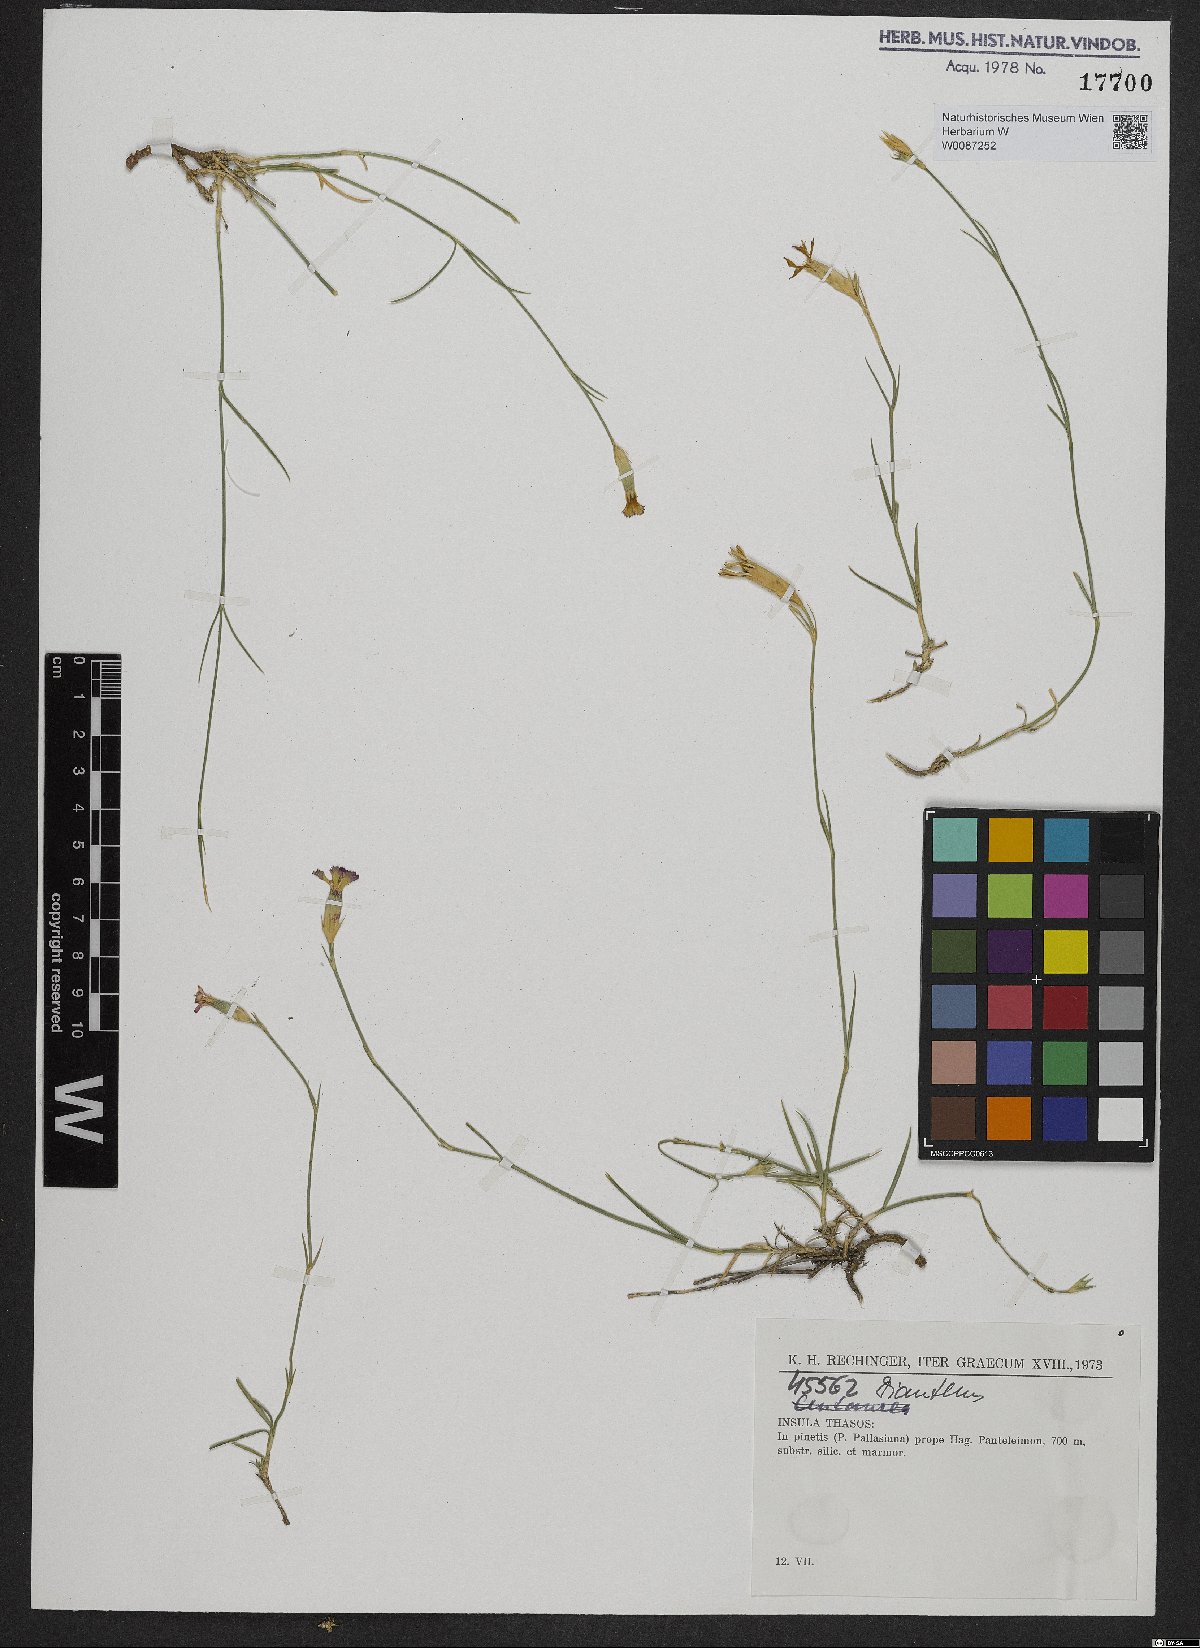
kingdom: Plantae
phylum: Tracheophyta
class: Magnoliopsida
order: Caryophyllales
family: Caryophyllaceae
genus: Dianthus
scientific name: Dianthus
